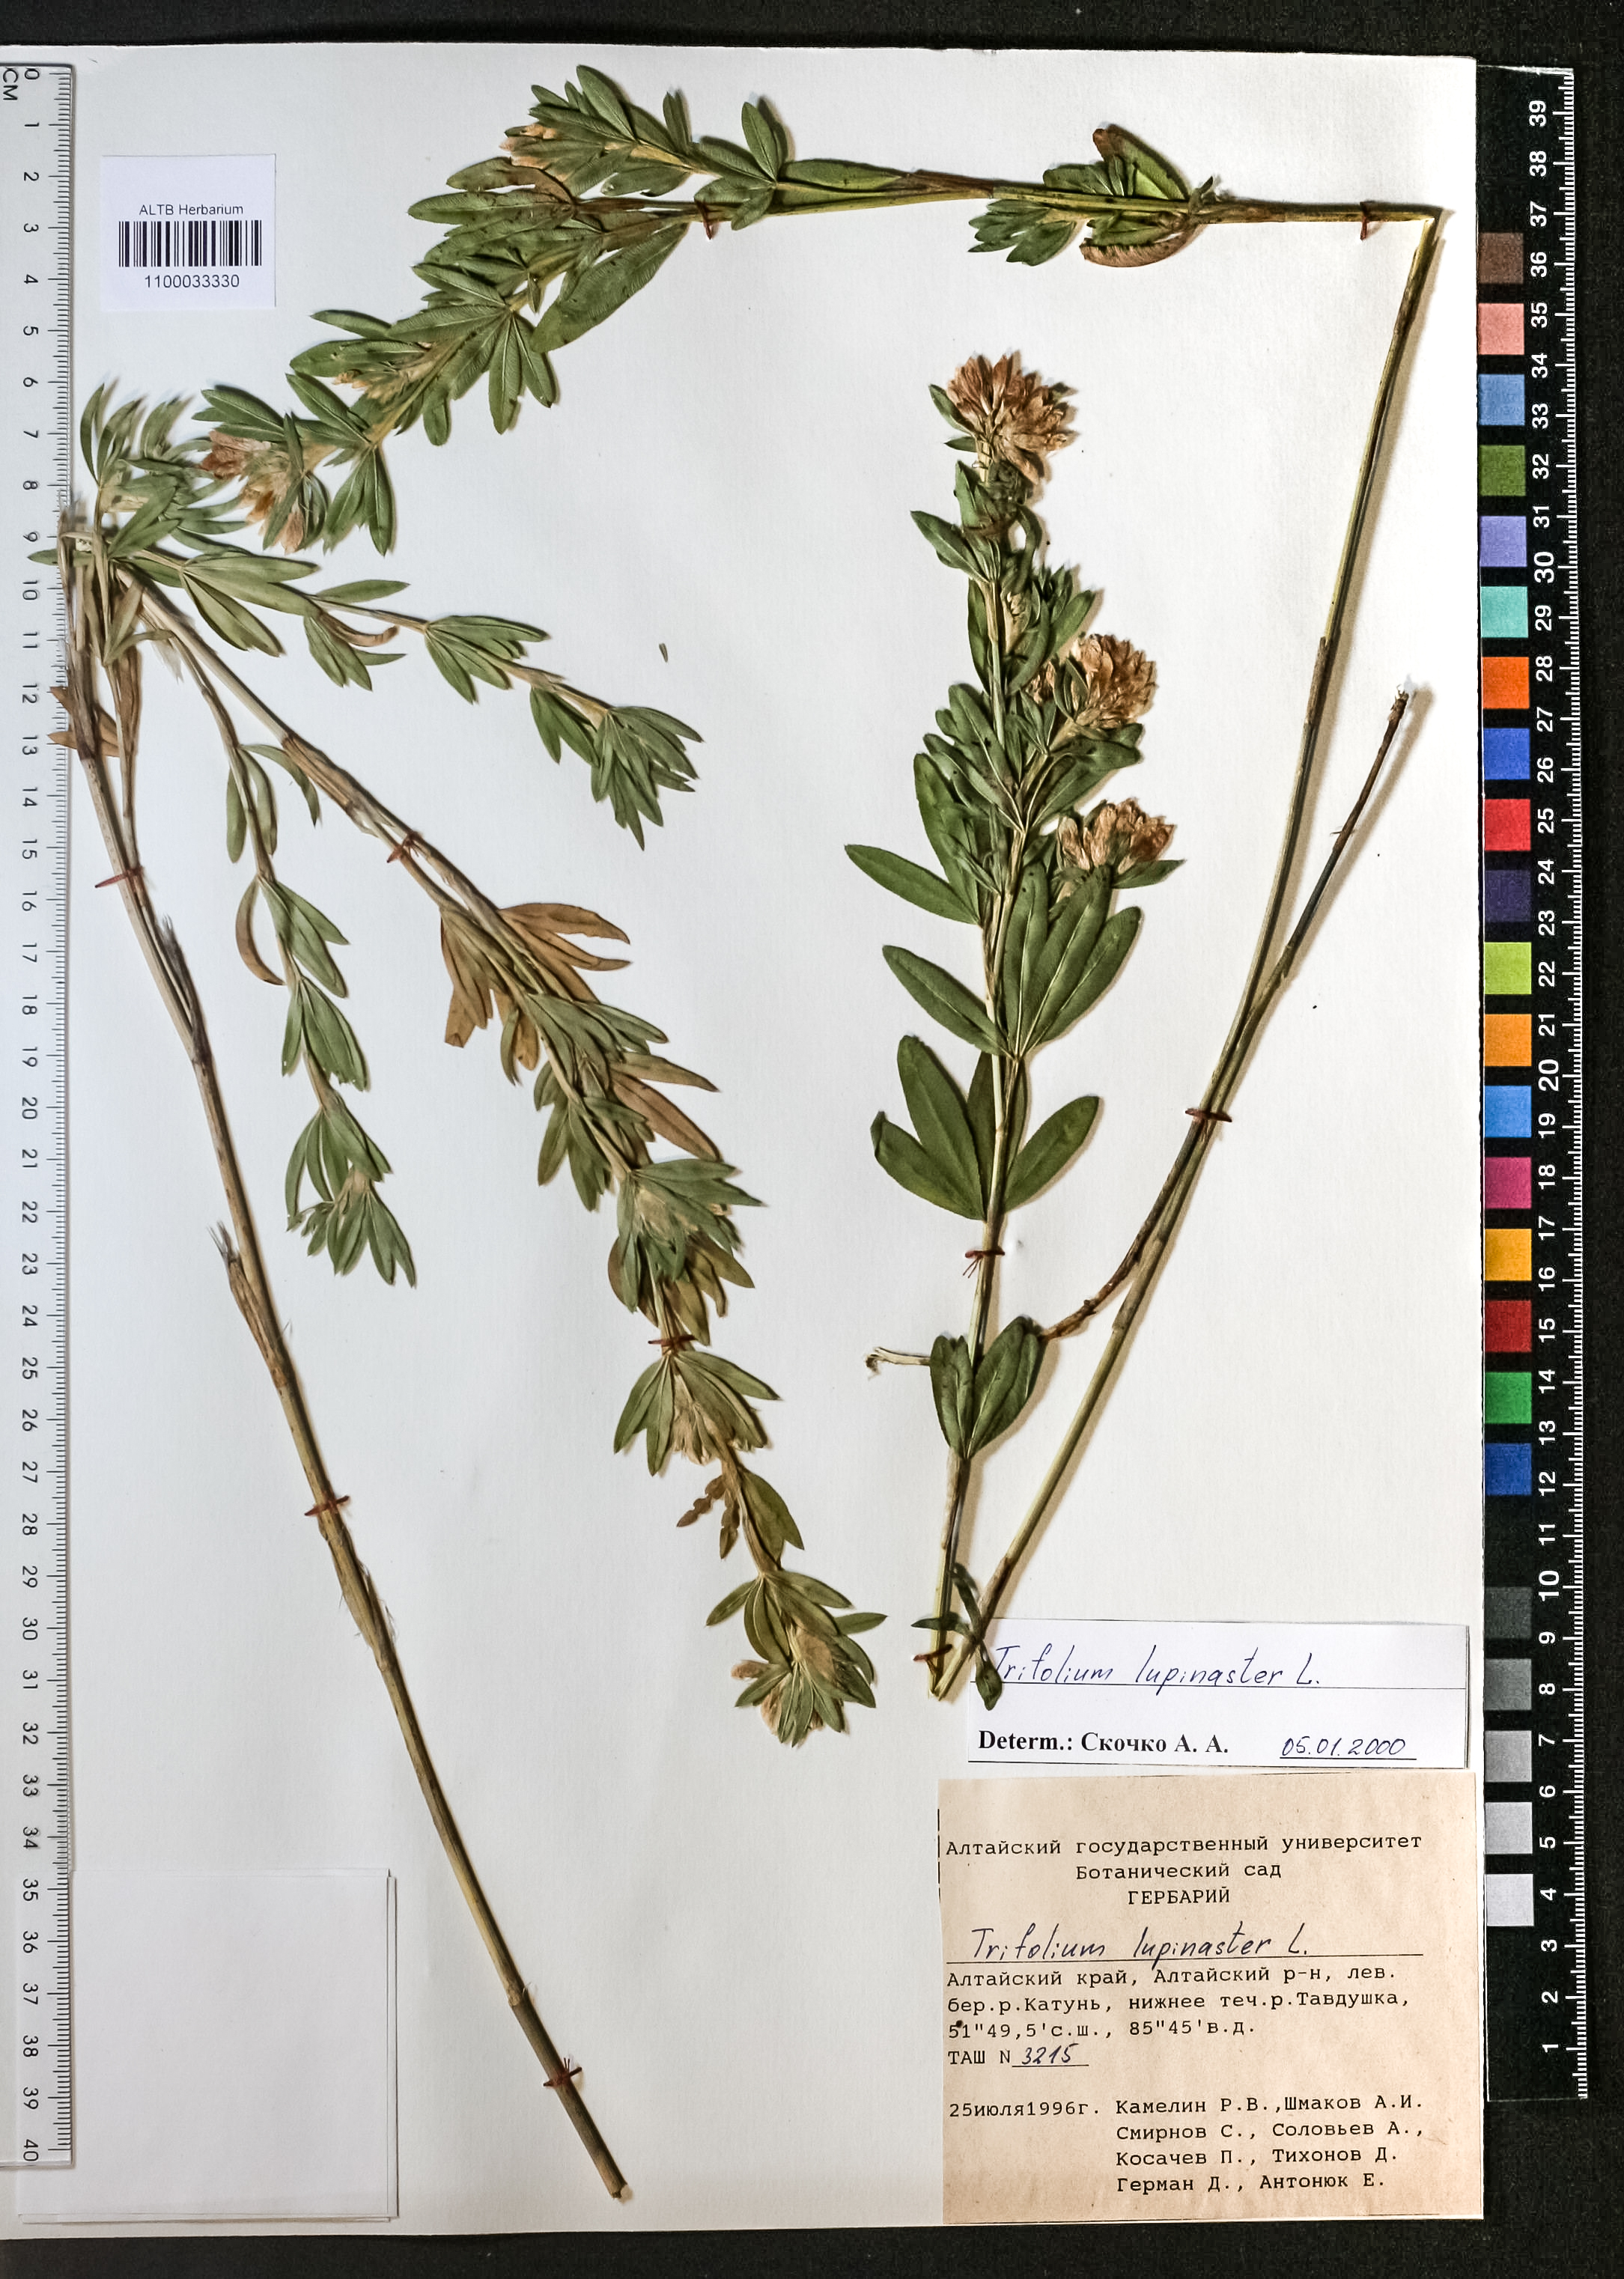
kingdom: Plantae
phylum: Tracheophyta
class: Magnoliopsida
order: Fabales
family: Fabaceae
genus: Trifolium
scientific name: Trifolium lupinaster
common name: Lupine clover
